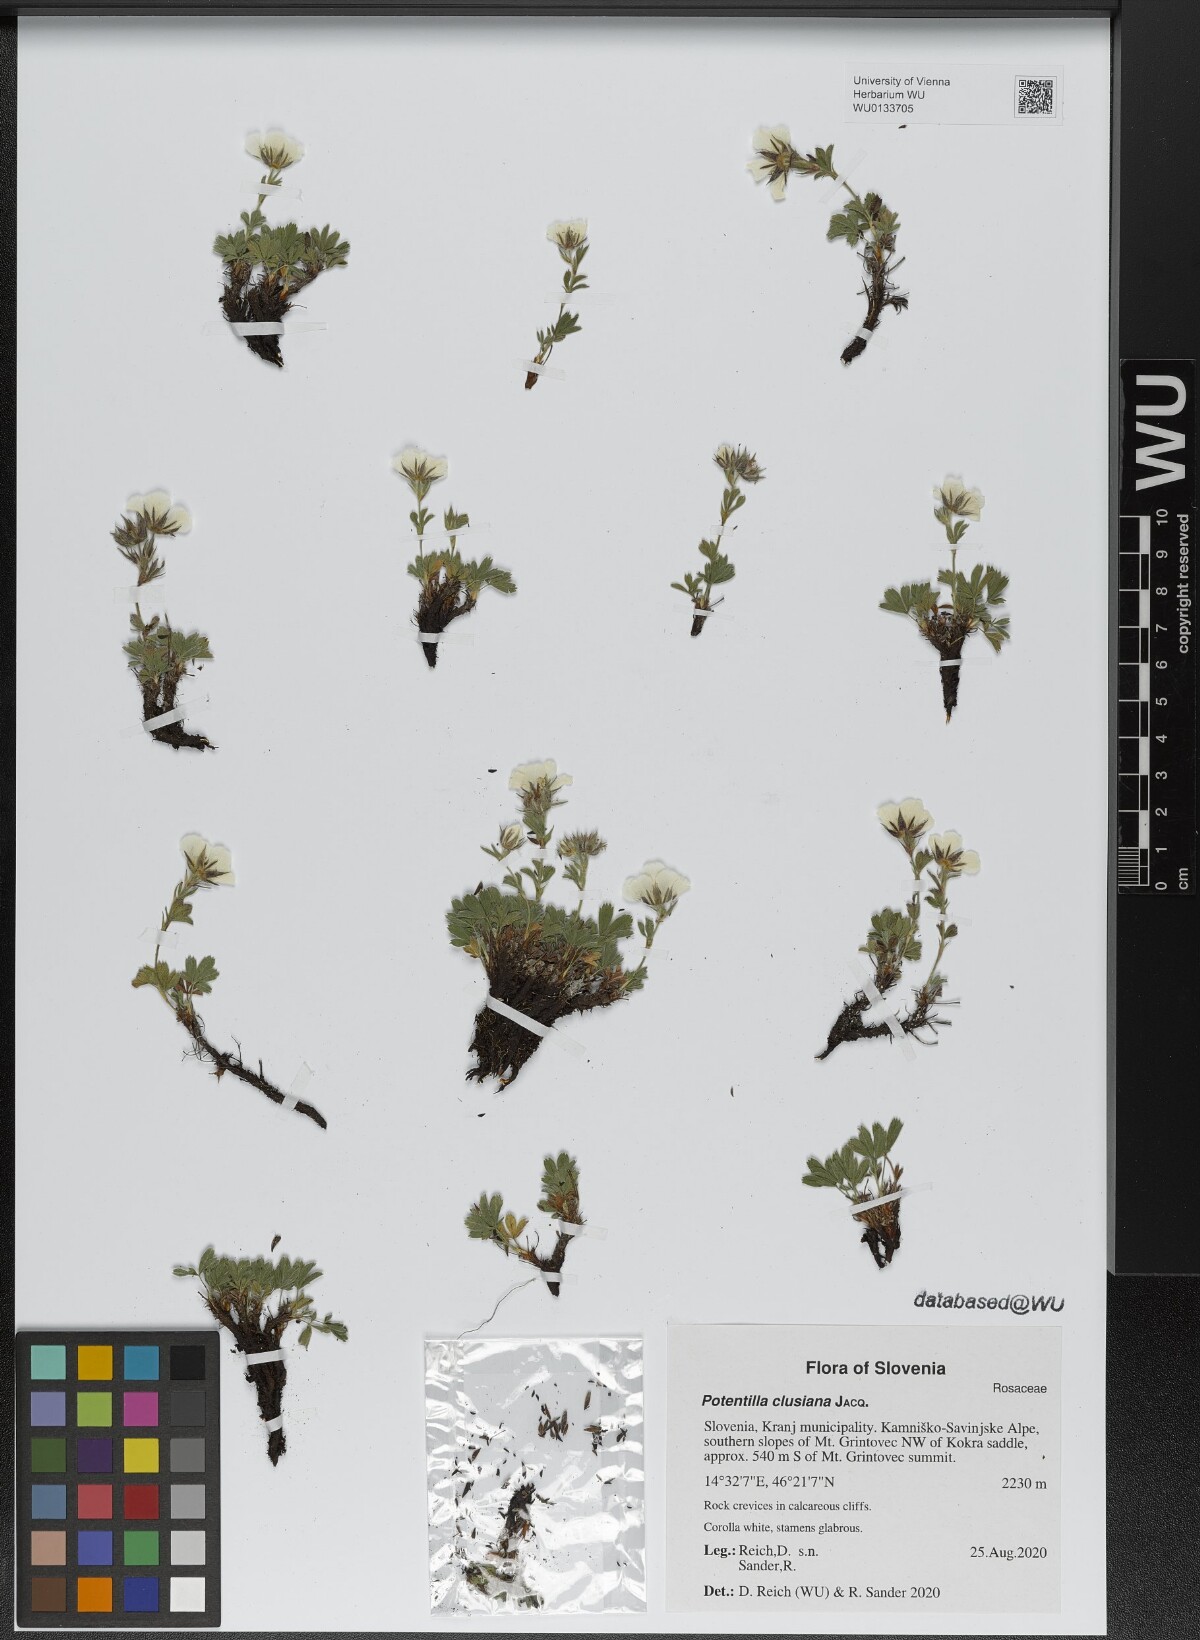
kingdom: Plantae
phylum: Tracheophyta
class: Magnoliopsida
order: Rosales
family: Rosaceae
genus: Potentilla
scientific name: Potentilla clusiana
